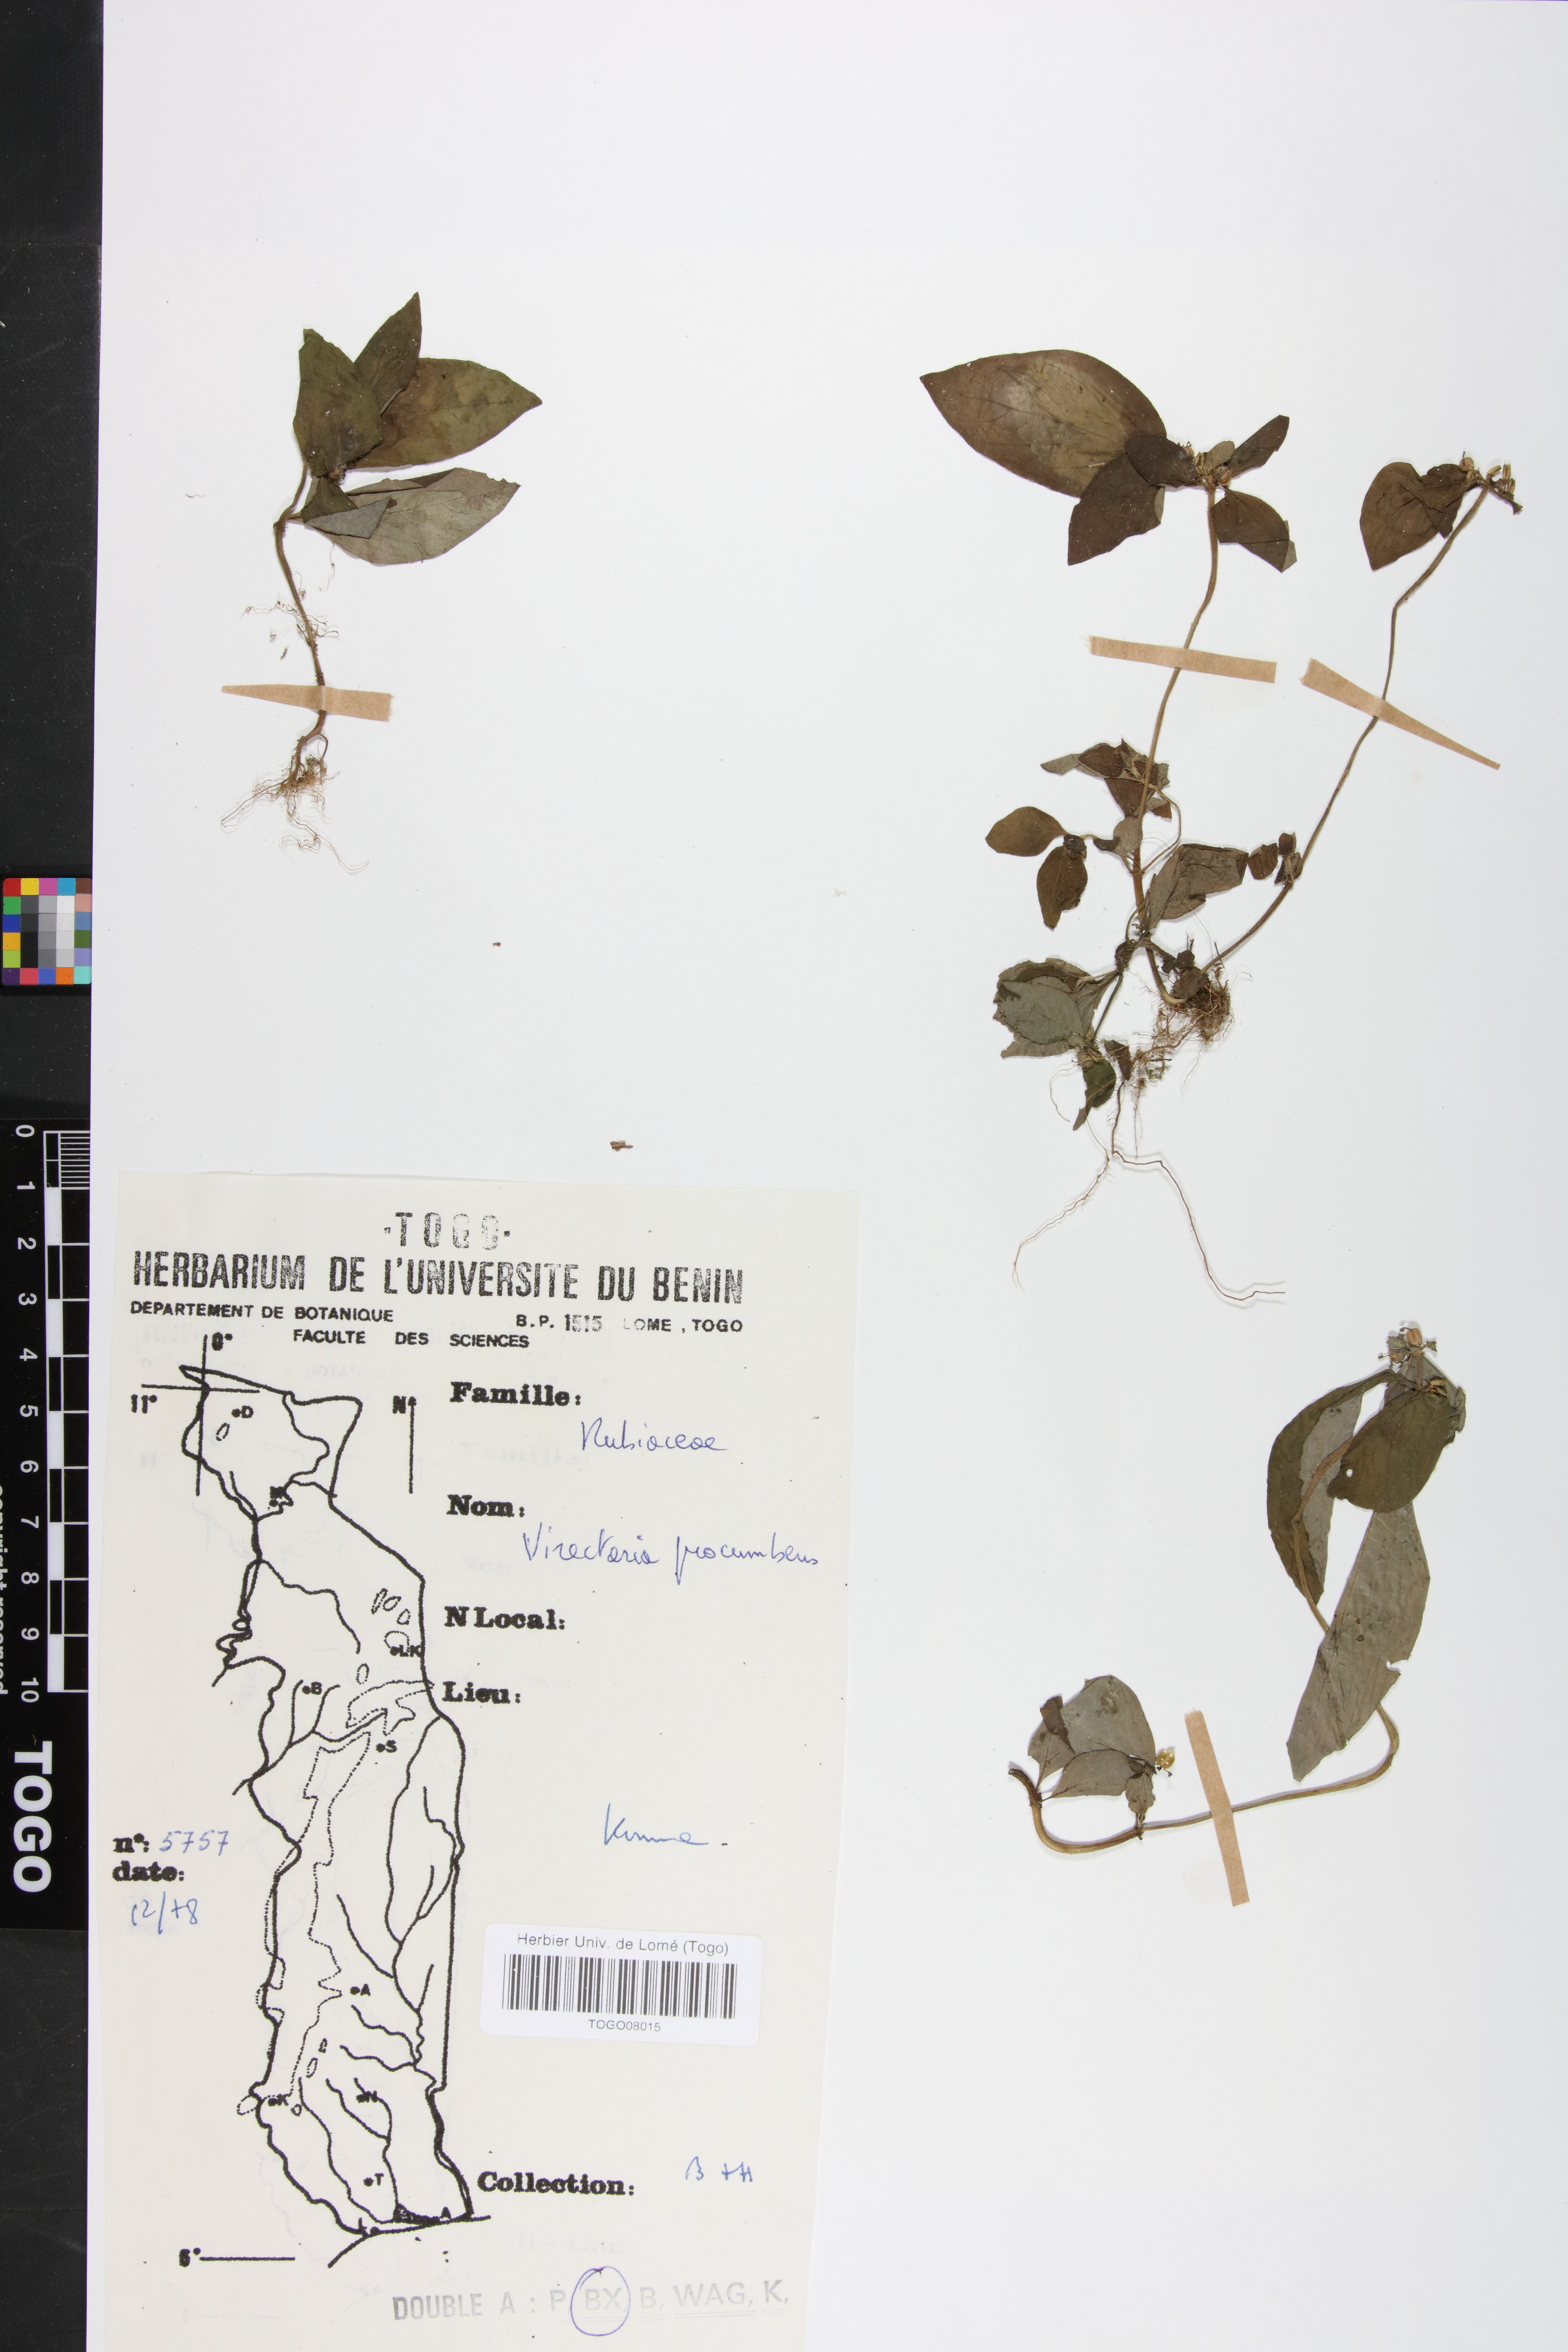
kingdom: Plantae
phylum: Tracheophyta
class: Magnoliopsida
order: Gentianales
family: Rubiaceae
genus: Virectaria
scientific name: Virectaria procumbens
